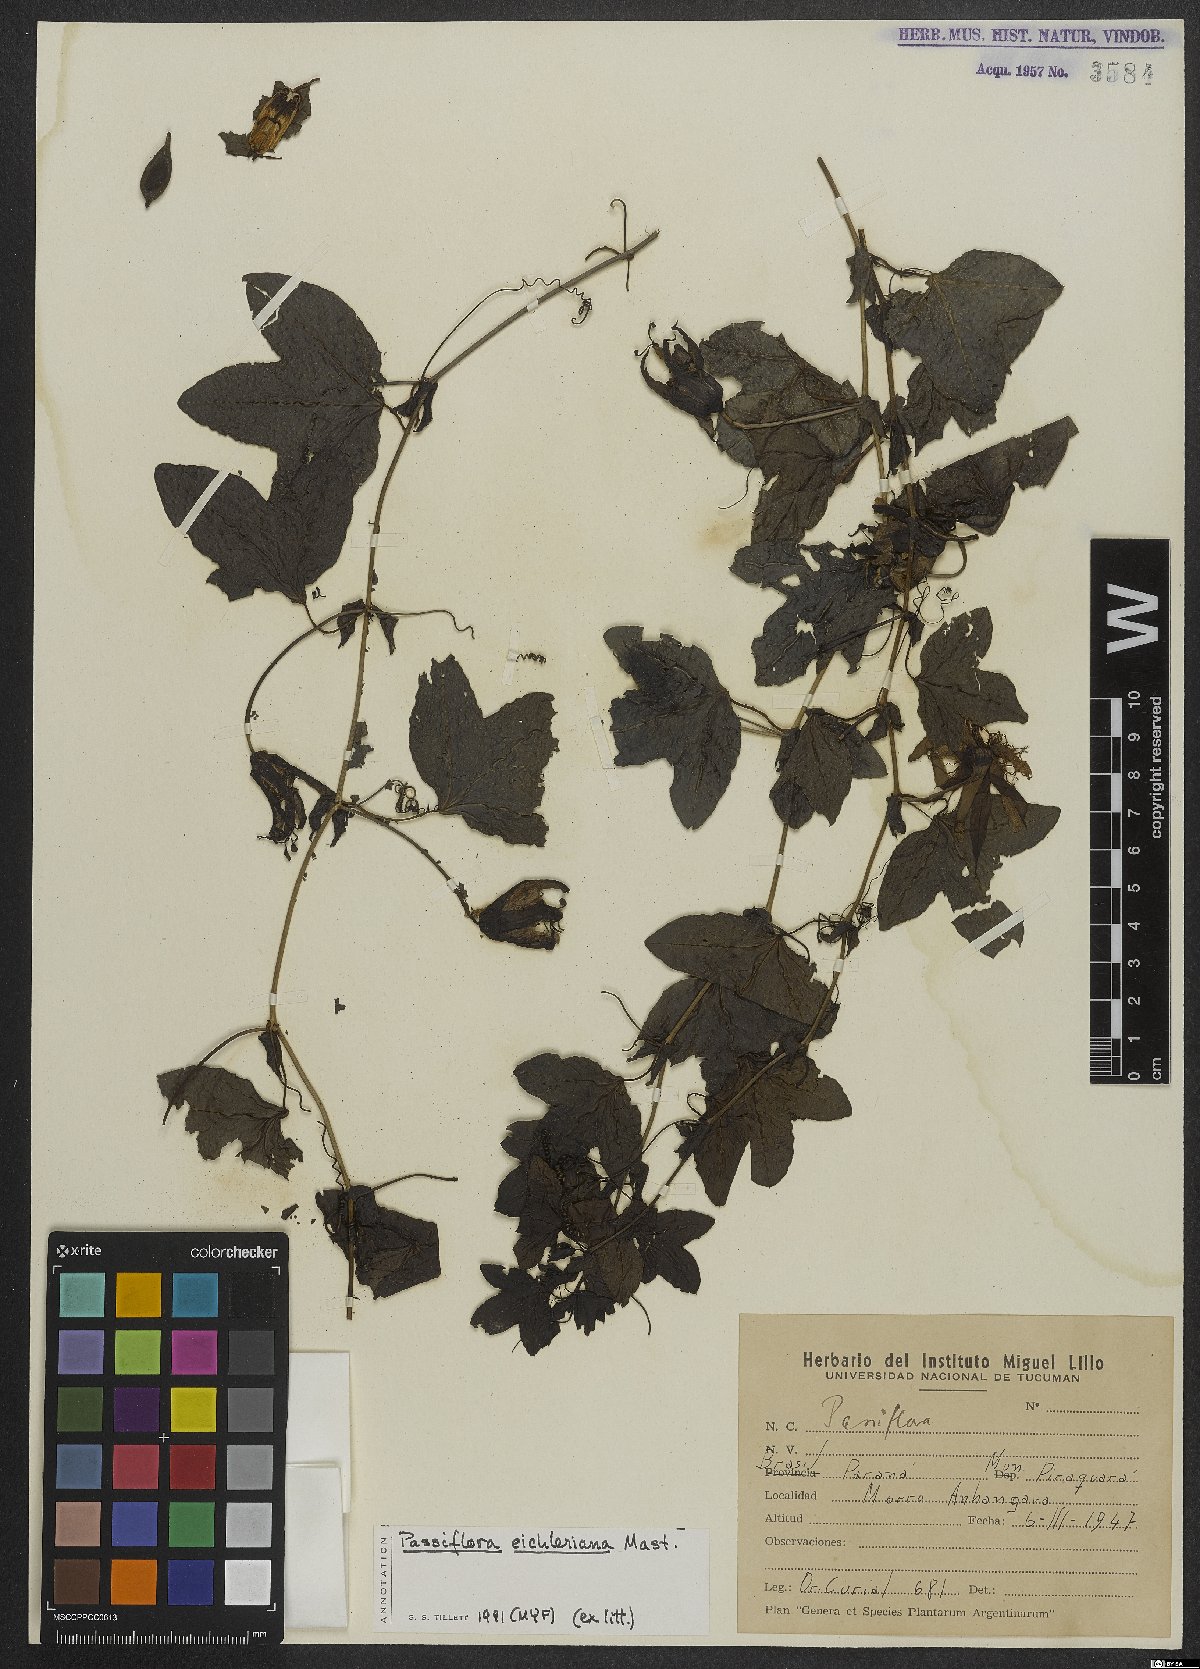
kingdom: Plantae
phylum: Tracheophyta
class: Magnoliopsida
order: Malpighiales
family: Passifloraceae
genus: Passiflora
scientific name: Passiflora edulis
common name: Purple granadilla
